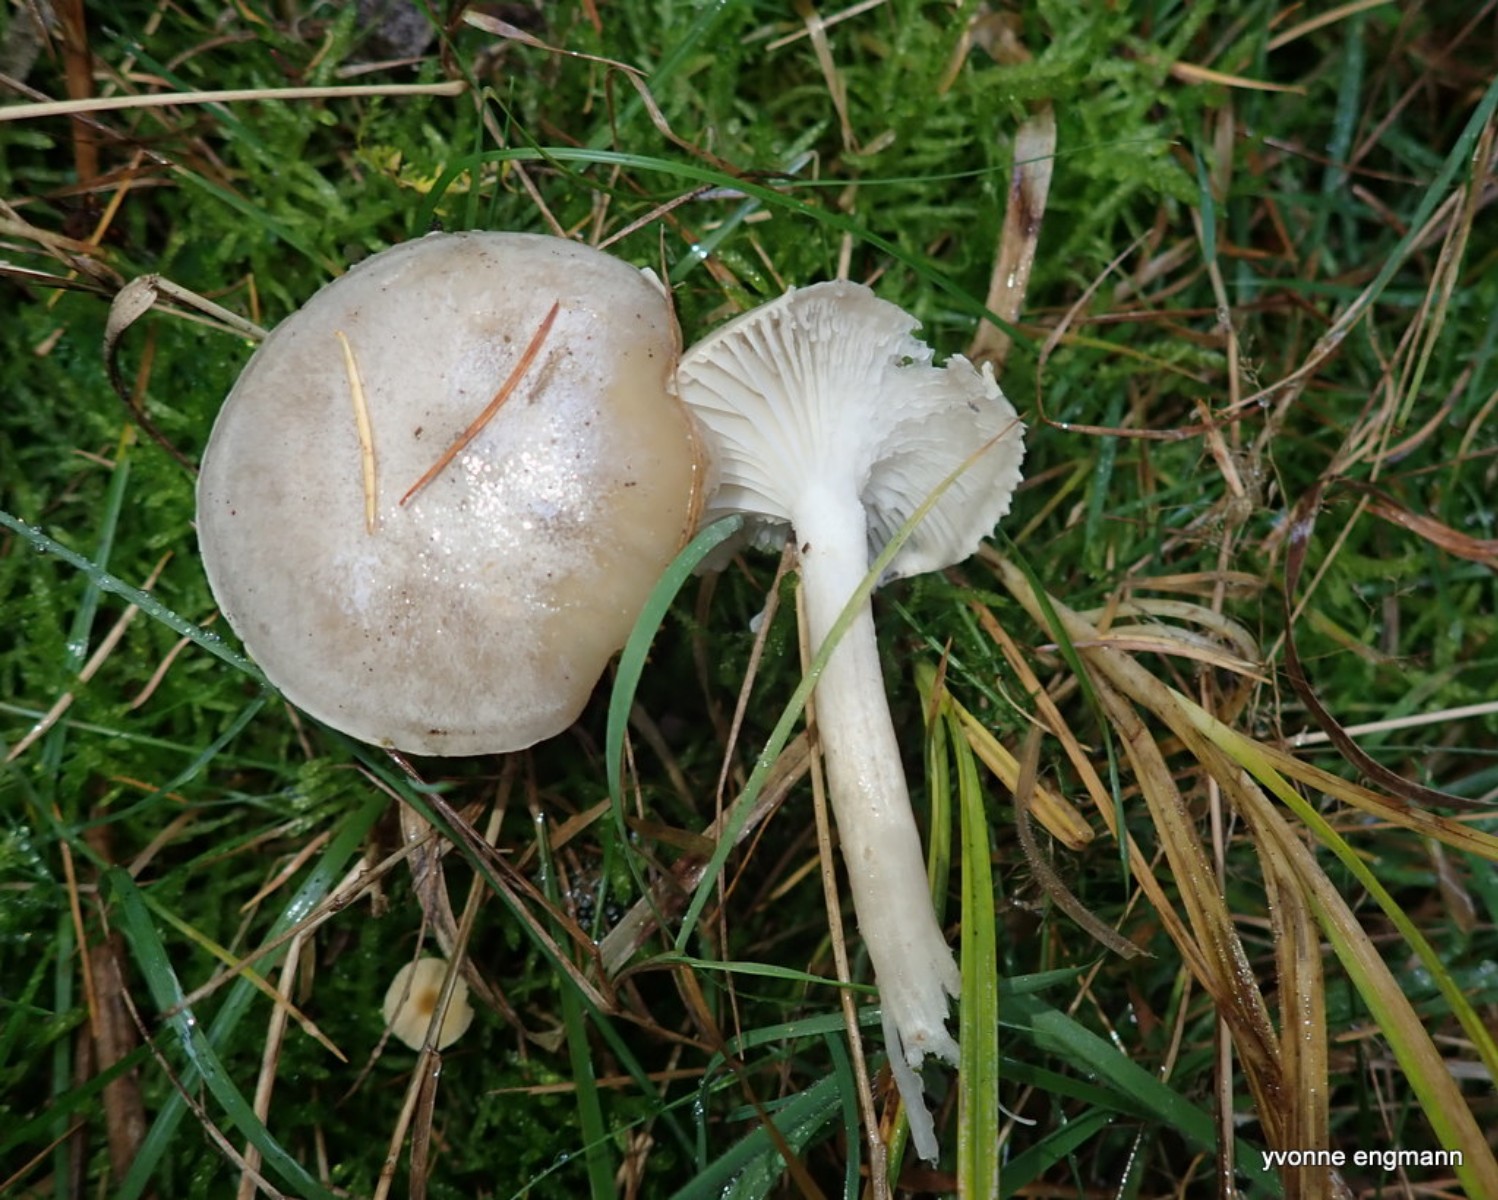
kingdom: Fungi
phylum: Basidiomycota
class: Agaricomycetes
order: Agaricales
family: Hygrophoraceae
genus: Hygrophorus
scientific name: Hygrophorus agathosmus
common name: vellugtende sneglehat
